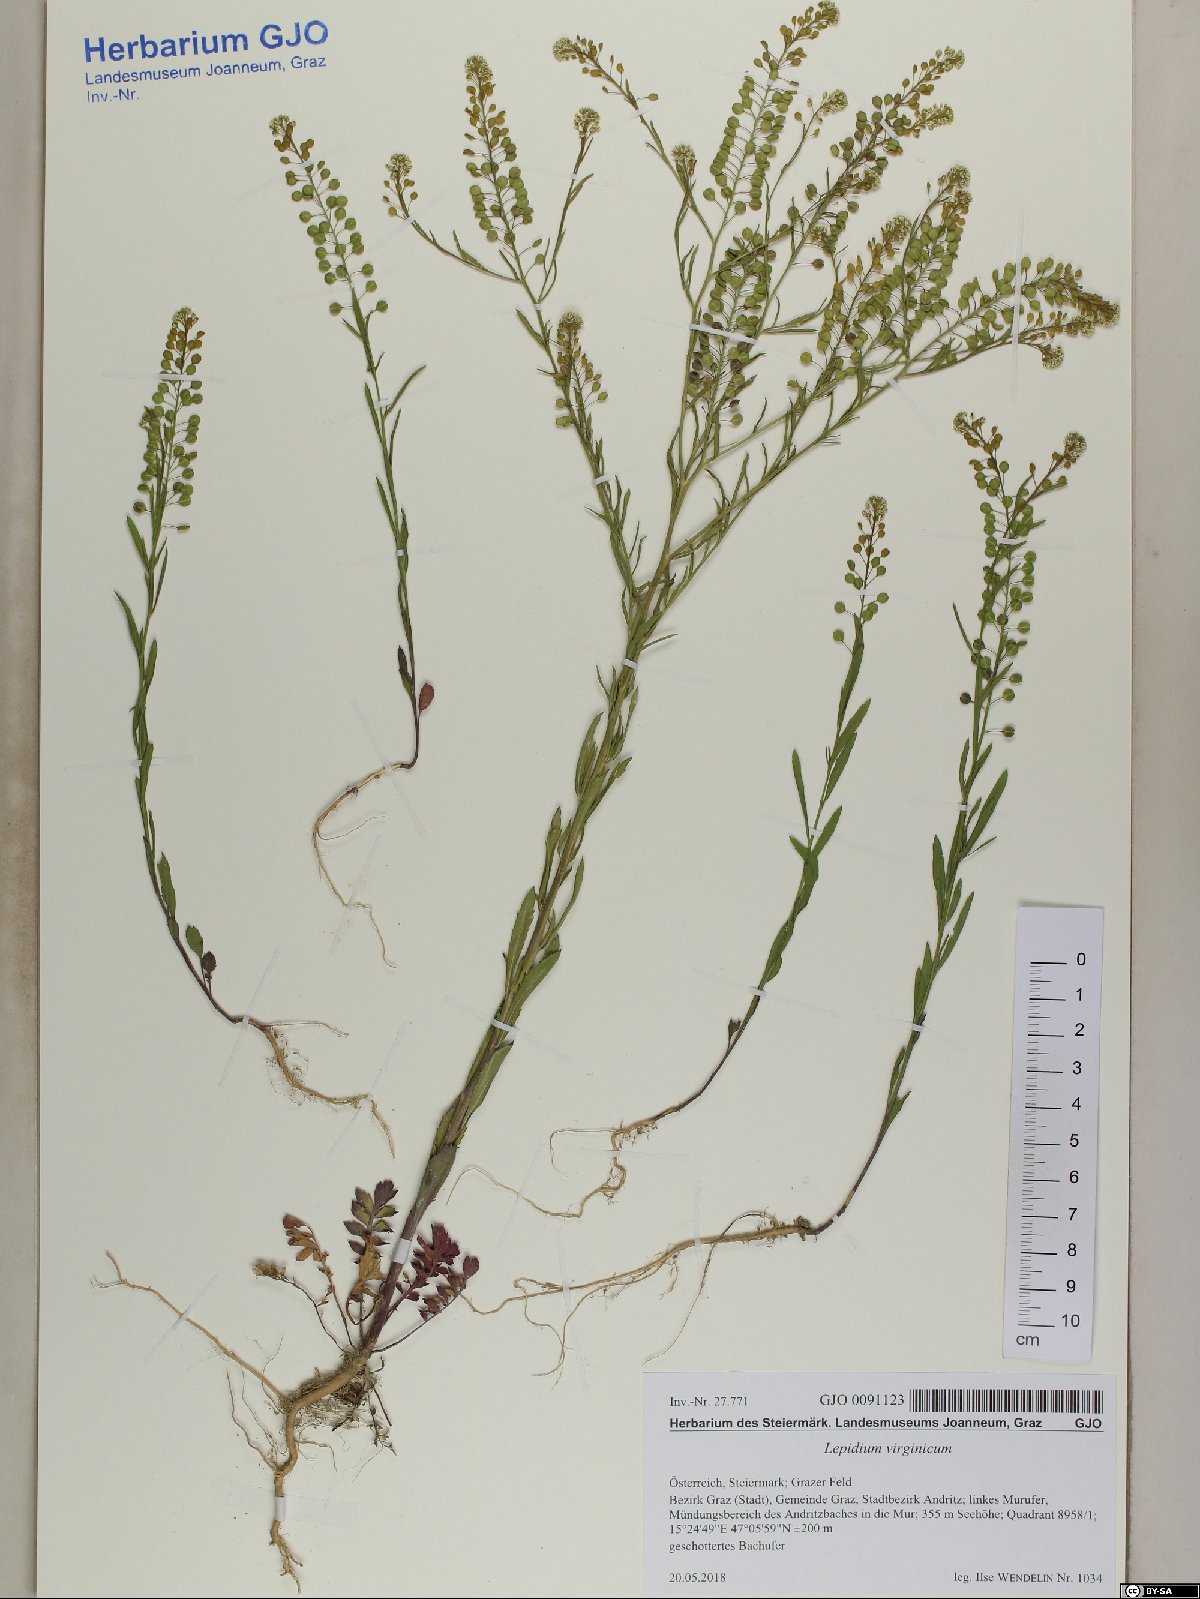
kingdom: Plantae
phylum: Tracheophyta
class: Magnoliopsida
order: Brassicales
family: Brassicaceae
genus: Lepidium
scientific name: Lepidium virginicum
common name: Least pepperwort
